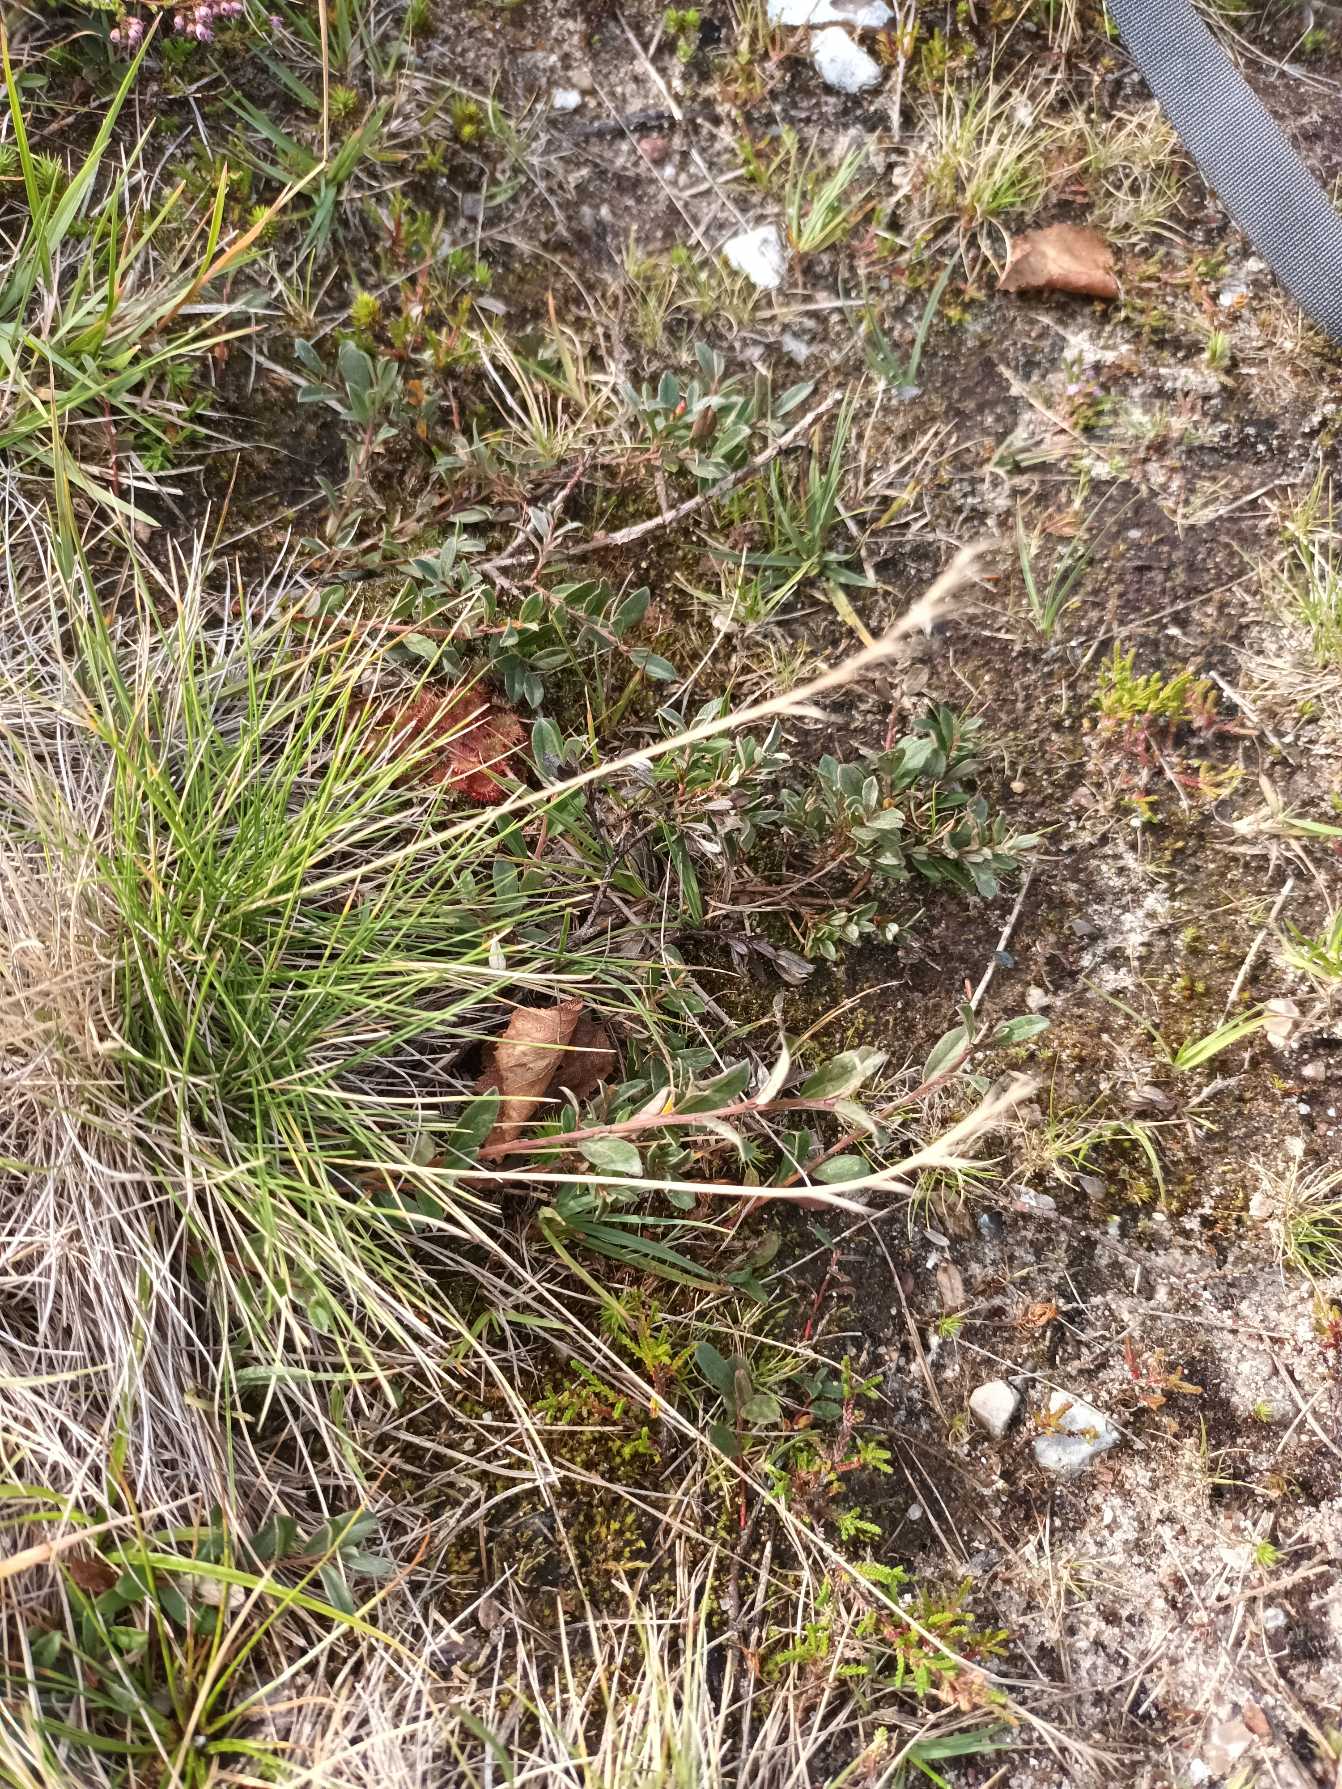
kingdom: Plantae
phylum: Tracheophyta
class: Liliopsida
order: Poales
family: Poaceae
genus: Nardus
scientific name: Nardus stricta
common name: Katteskæg
